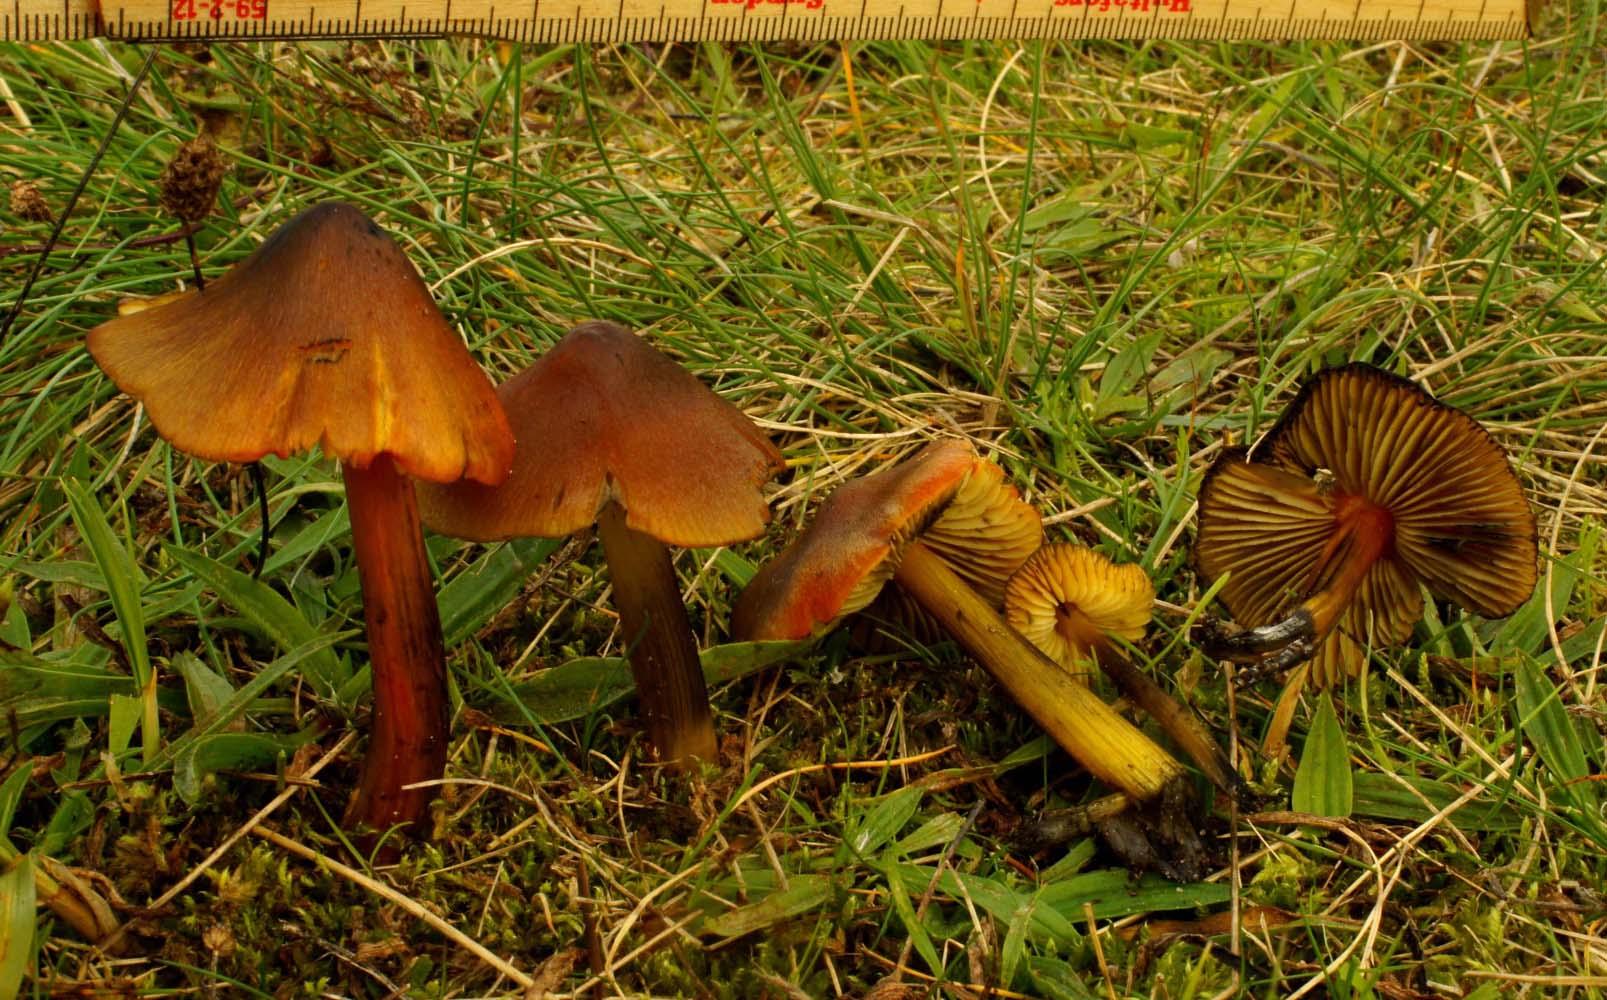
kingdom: Fungi
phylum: Basidiomycota
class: Agaricomycetes
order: Agaricales
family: Hygrophoraceae
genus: Hygrocybe
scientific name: Hygrocybe conica
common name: kegle-vokshat
